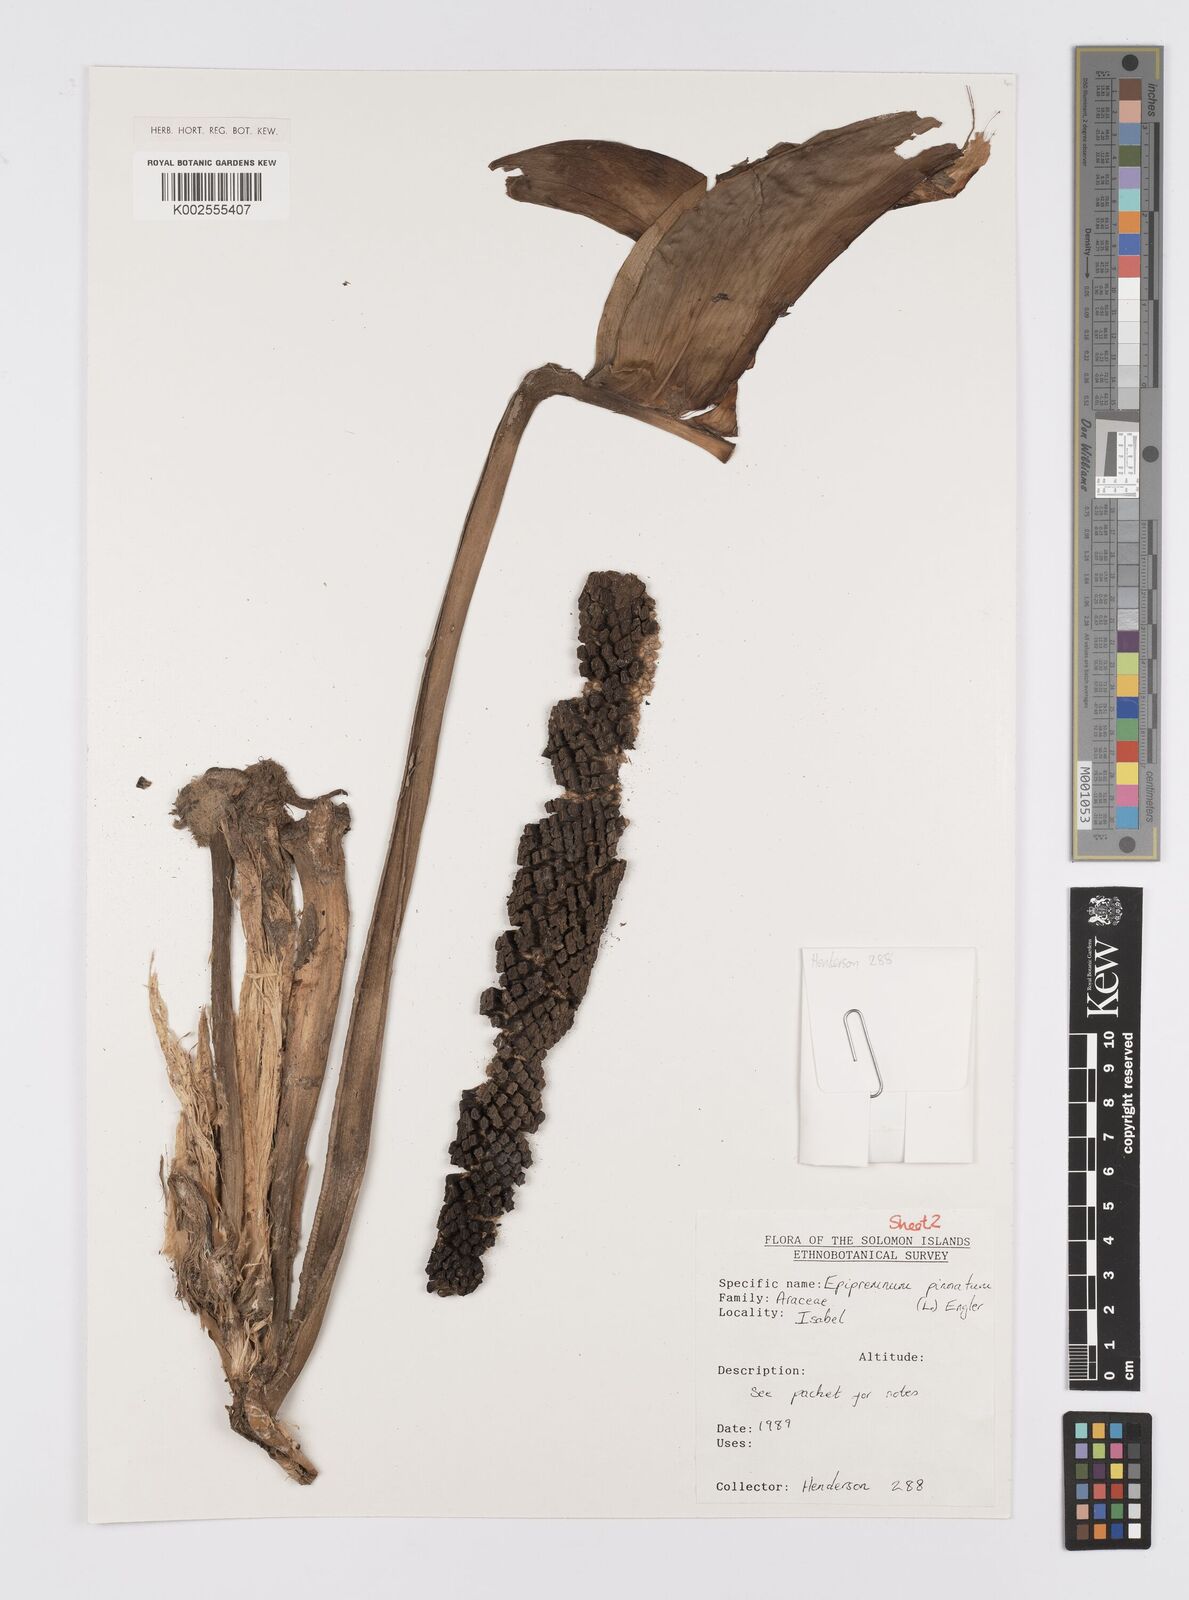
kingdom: Plantae
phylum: Tracheophyta
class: Liliopsida
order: Alismatales
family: Araceae
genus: Epipremnum
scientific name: Epipremnum pinnatum
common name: Centipede tongavine
